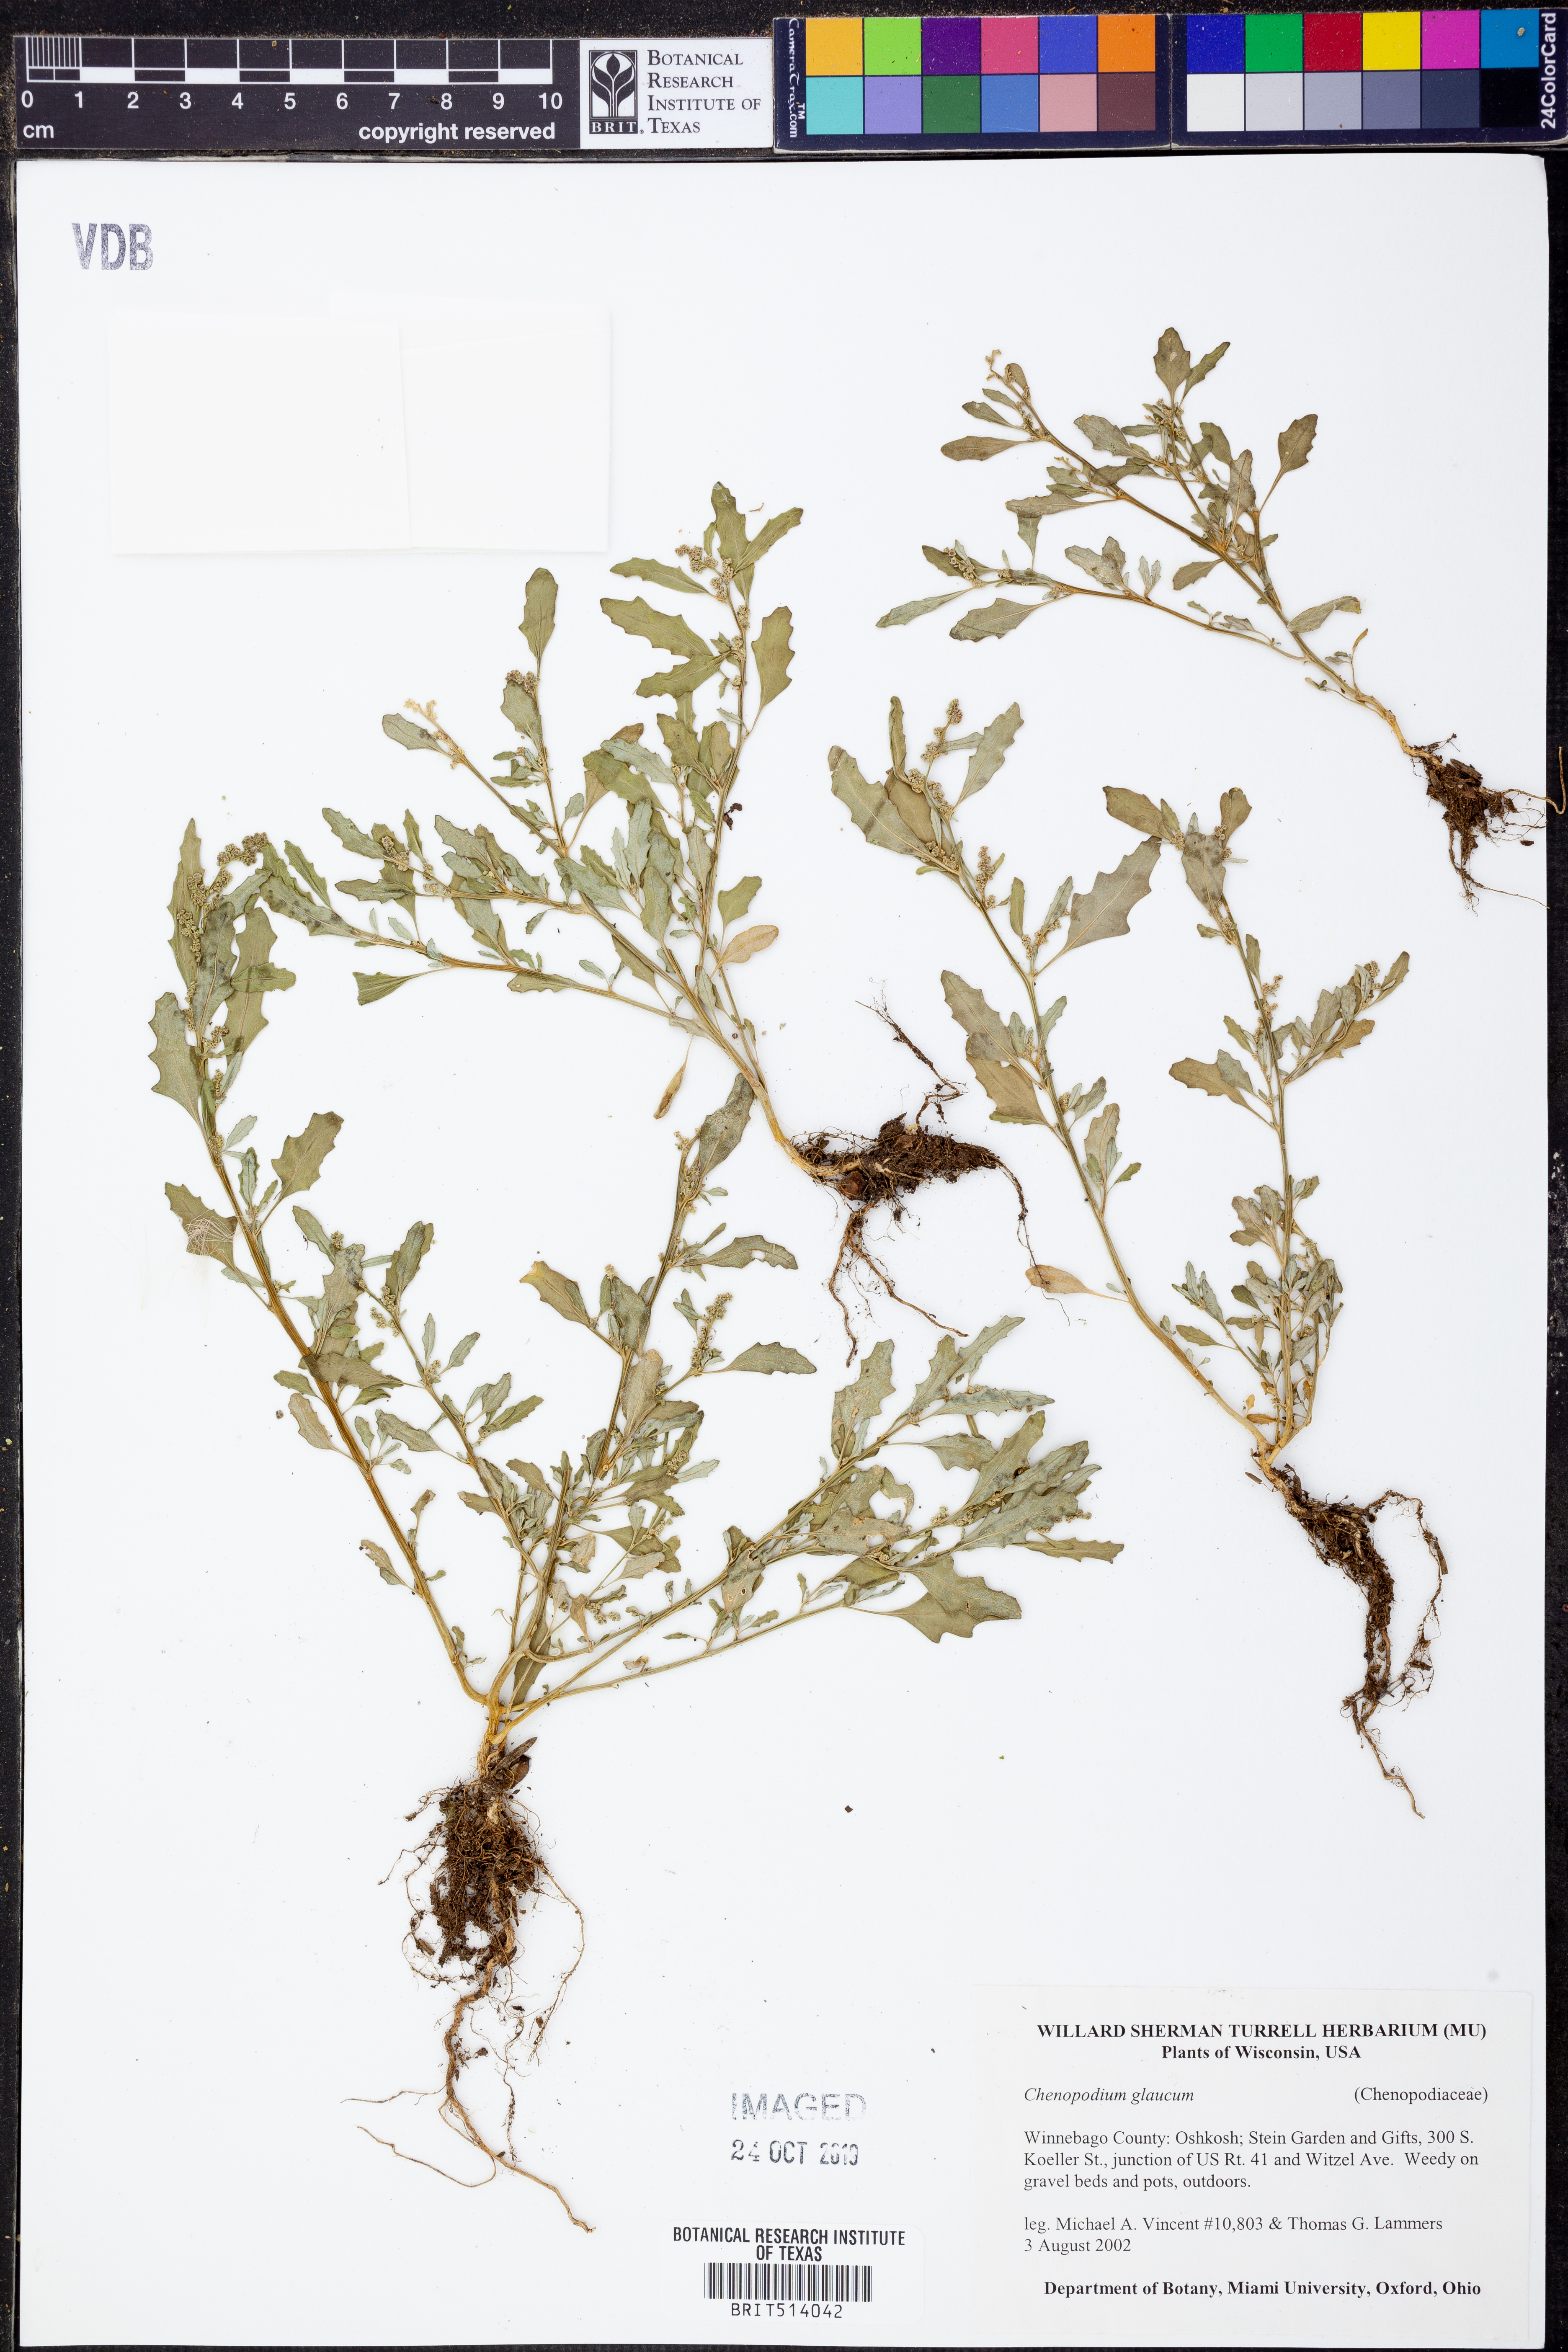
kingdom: Plantae
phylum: Tracheophyta
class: Magnoliopsida
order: Caryophyllales
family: Amaranthaceae
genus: Oxybasis
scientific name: Oxybasis glauca
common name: Glaucous goosefoot
